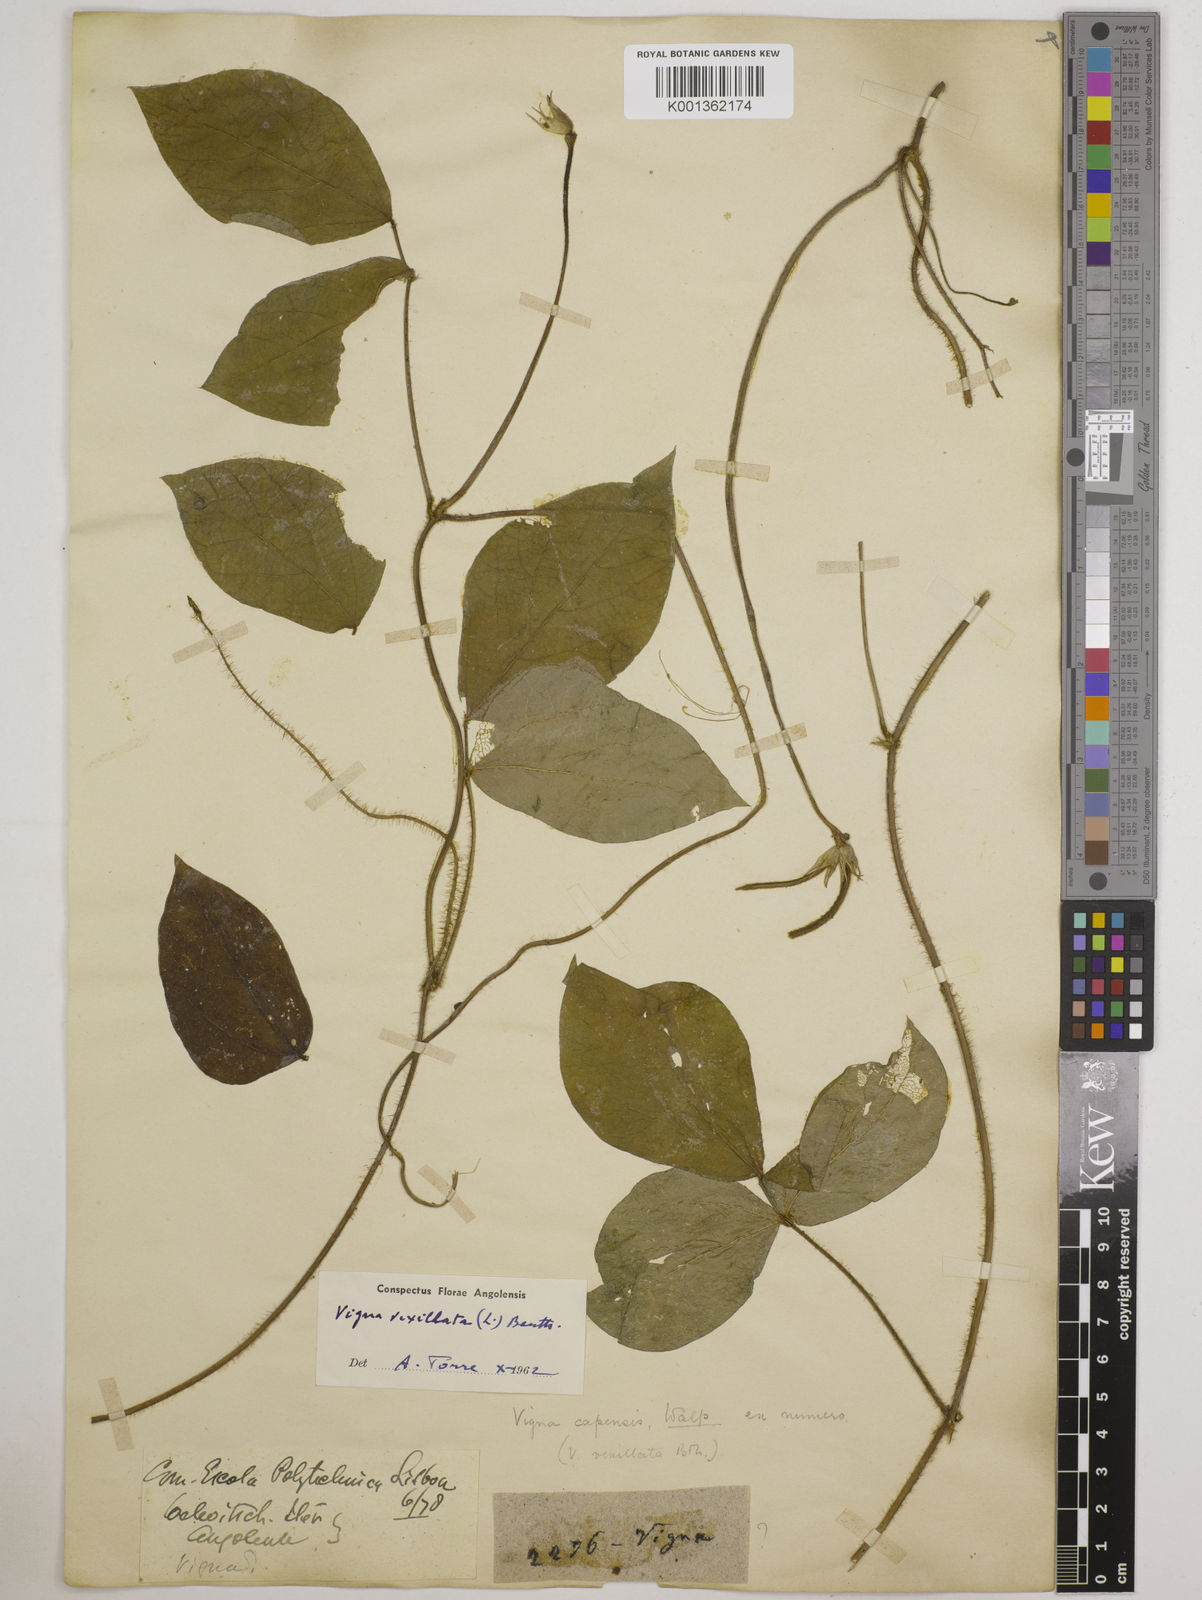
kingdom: Plantae
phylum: Tracheophyta
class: Magnoliopsida
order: Fabales
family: Fabaceae
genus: Vigna
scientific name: Vigna vexillata
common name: Zombi pea
